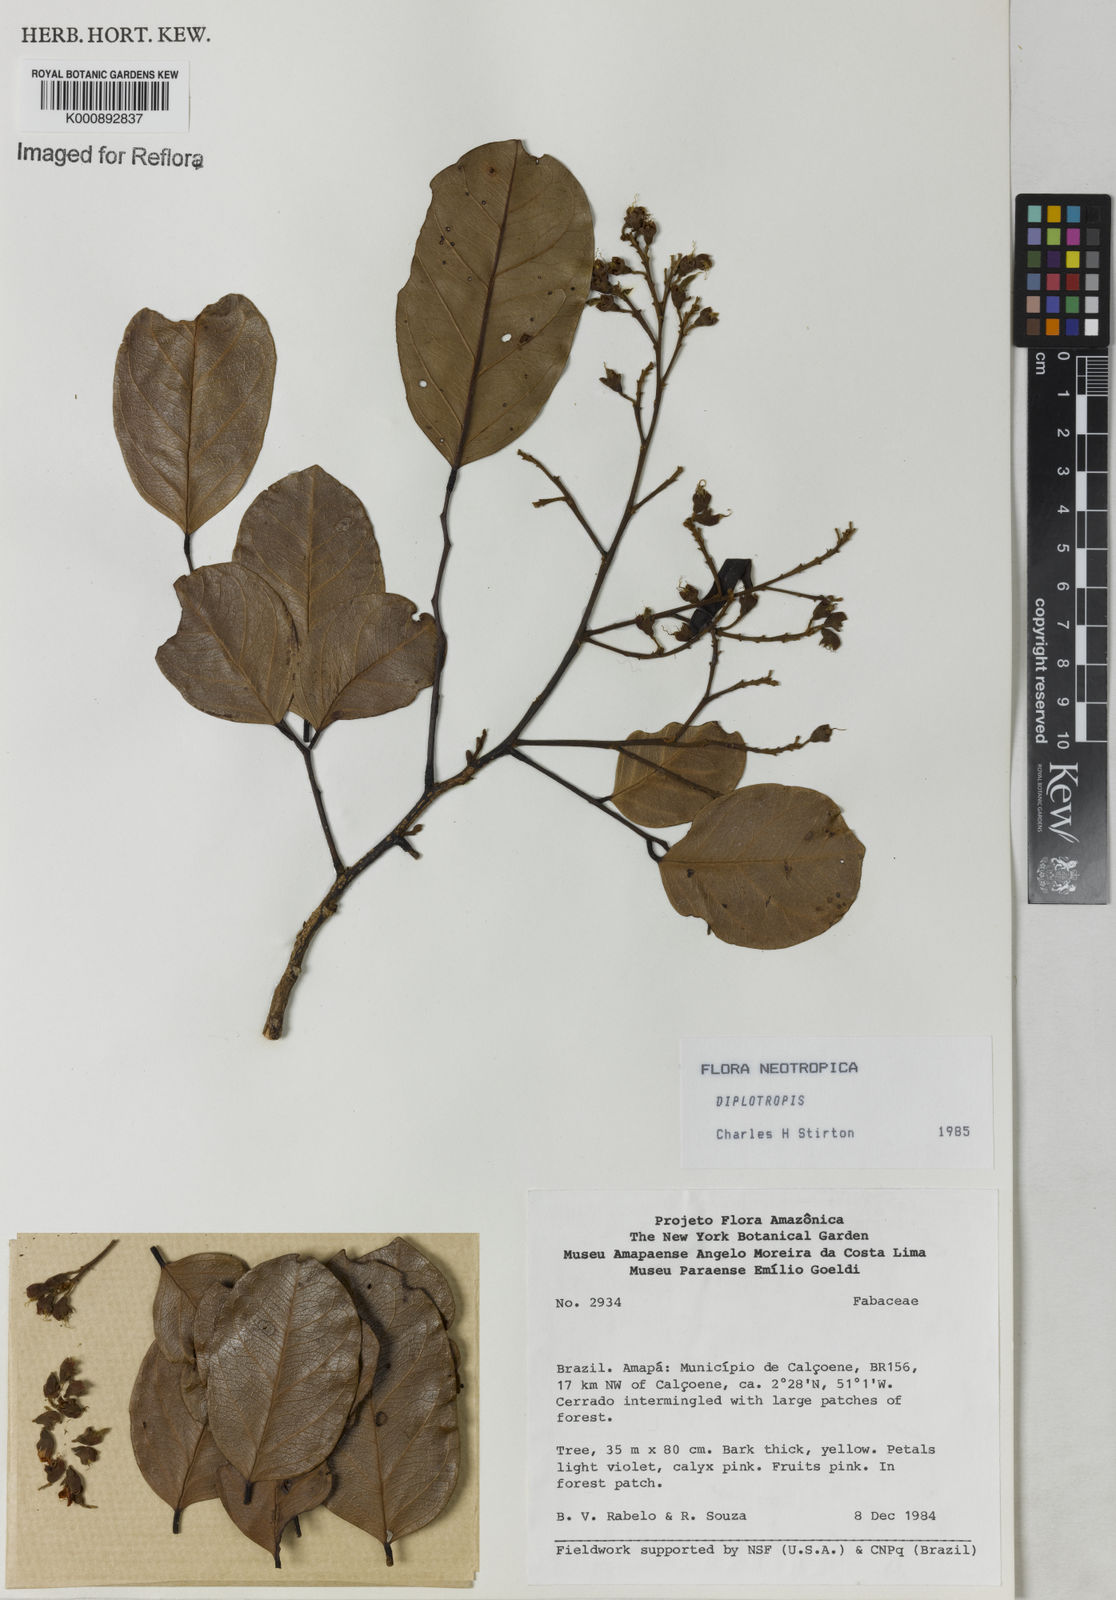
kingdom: Plantae
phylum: Tracheophyta
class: Magnoliopsida
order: Fabales
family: Fabaceae
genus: Diplotropis
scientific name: Diplotropis
